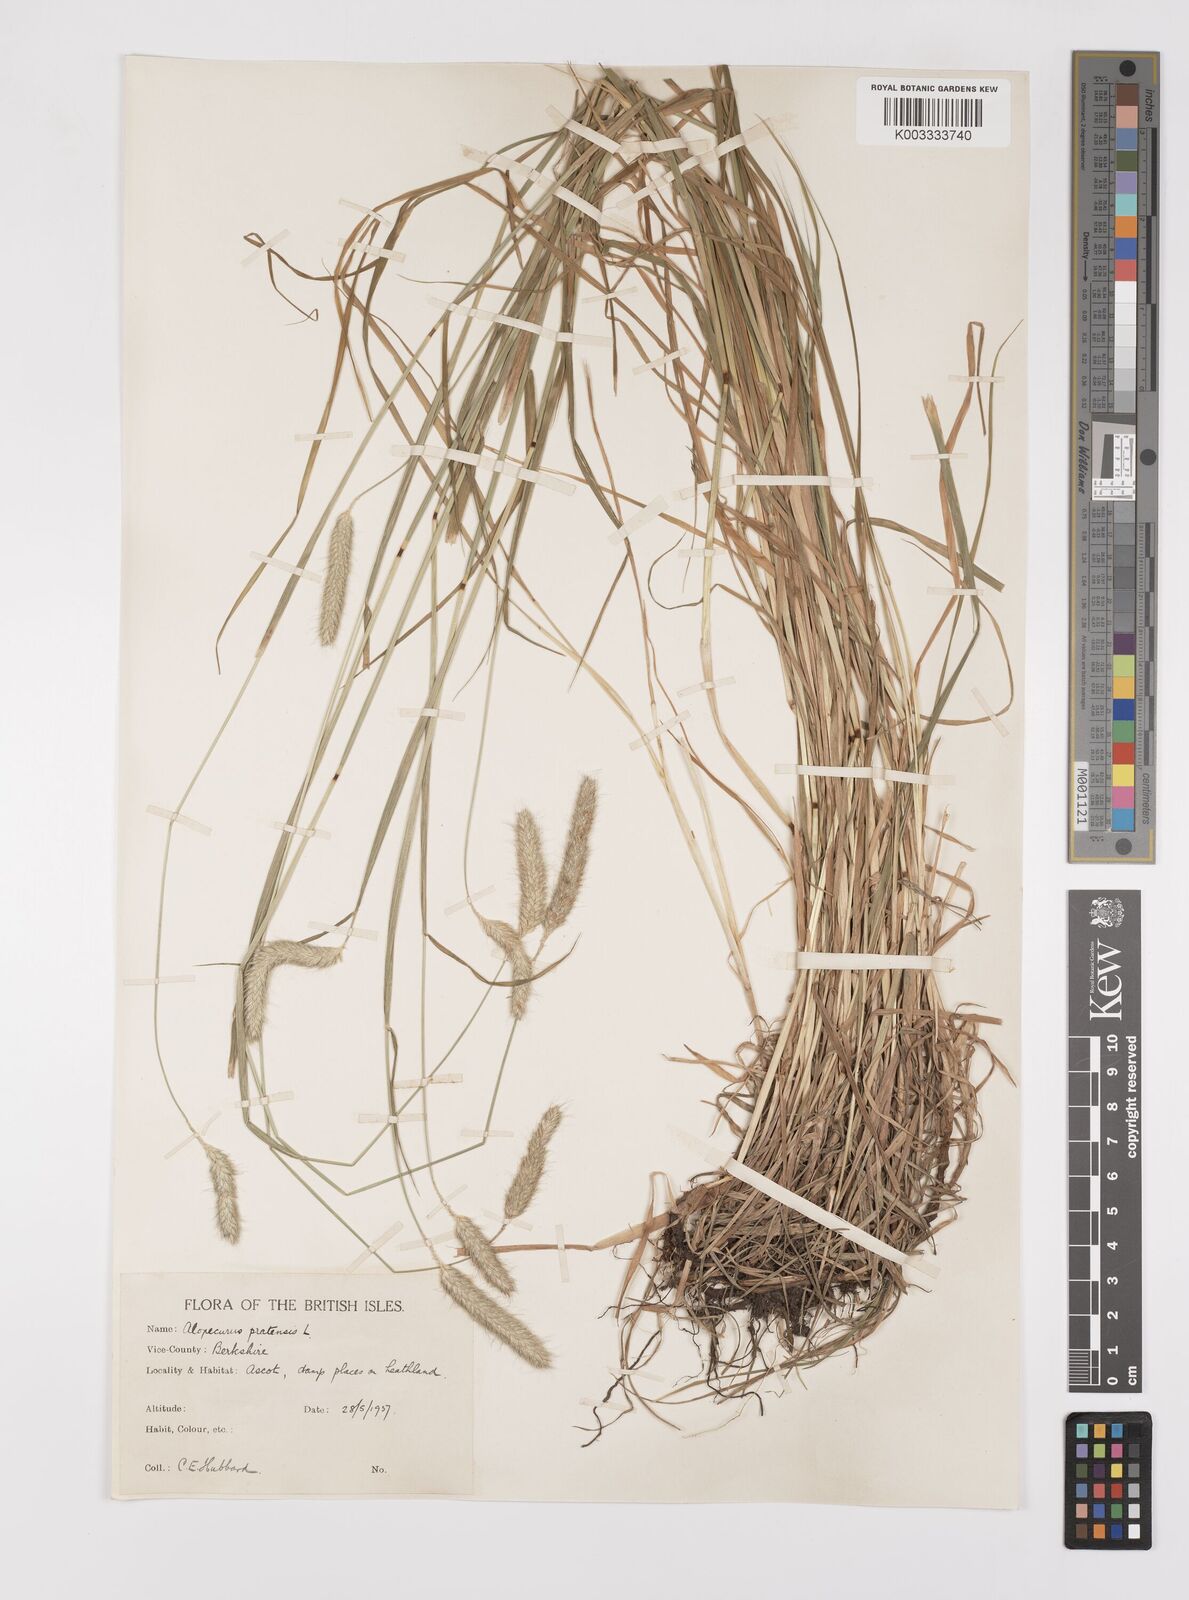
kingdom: Plantae
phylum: Tracheophyta
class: Liliopsida
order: Poales
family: Poaceae
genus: Alopecurus
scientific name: Alopecurus pratensis
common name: Meadow foxtail
